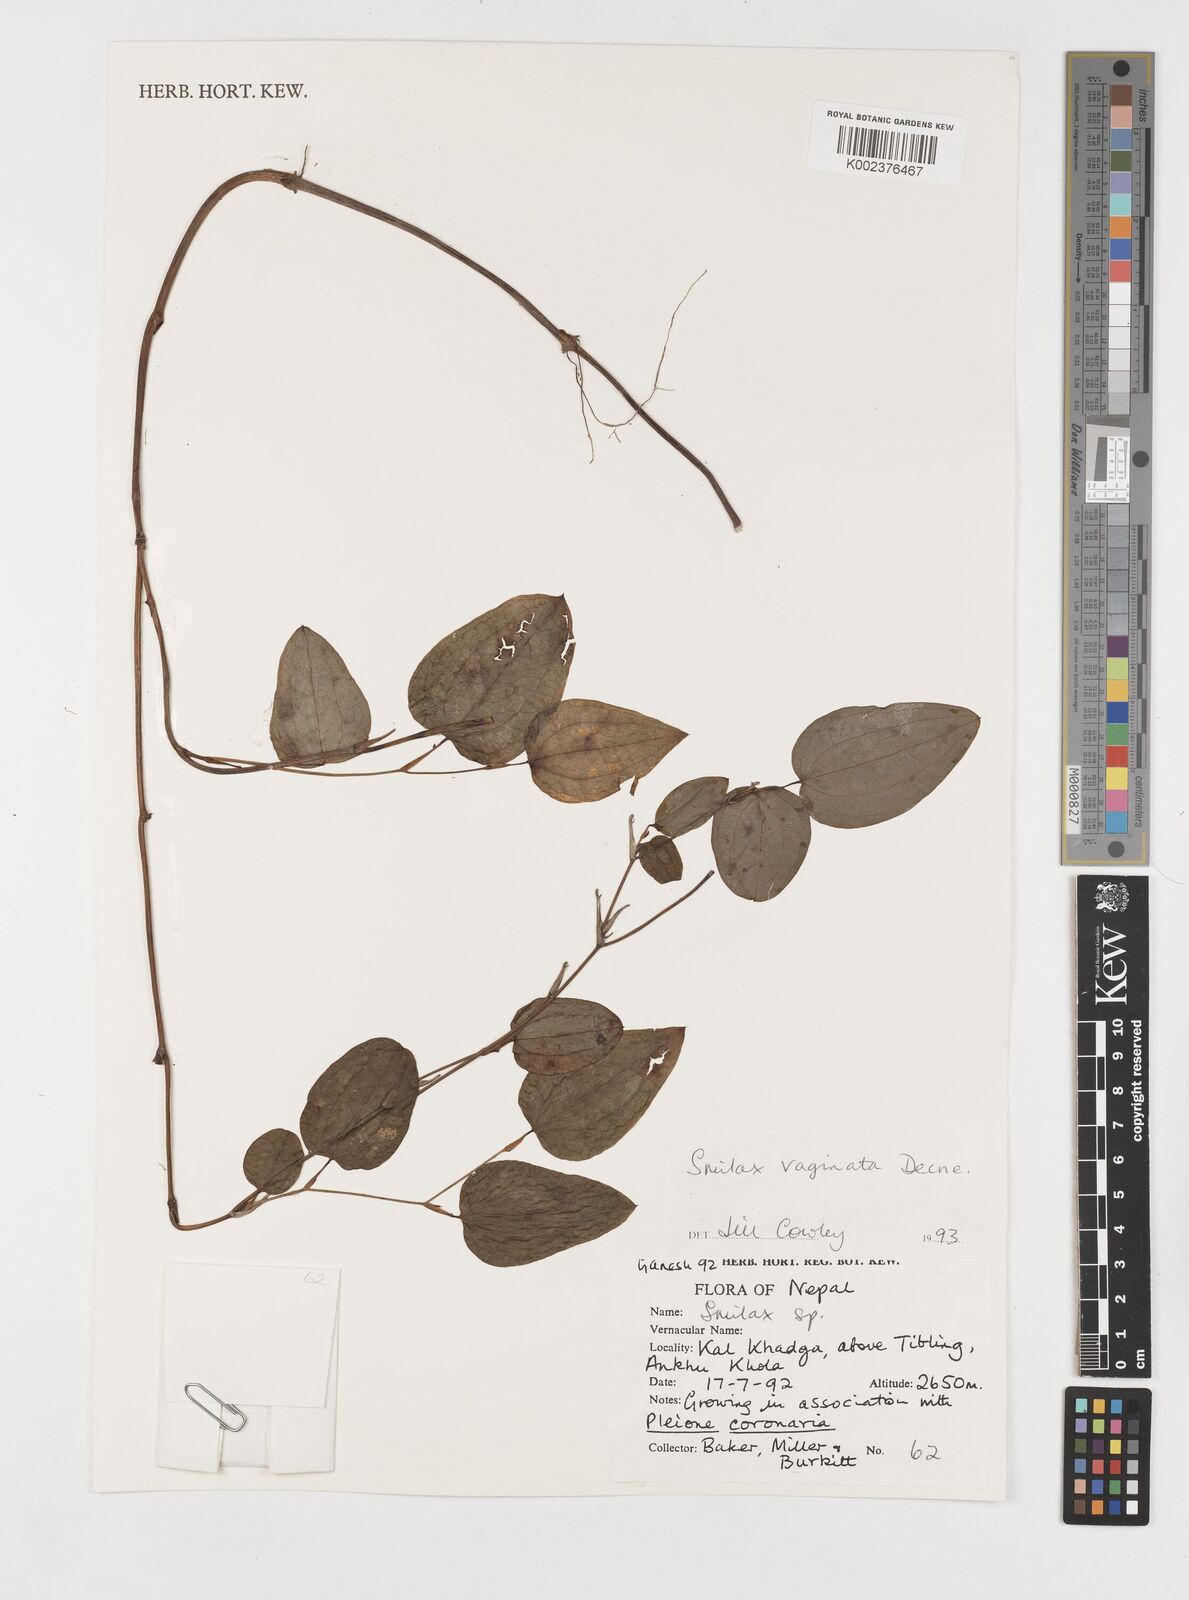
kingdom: Plantae
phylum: Tracheophyta
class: Liliopsida
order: Liliales
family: Smilacaceae
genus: Smilax
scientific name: Smilax vaginata
